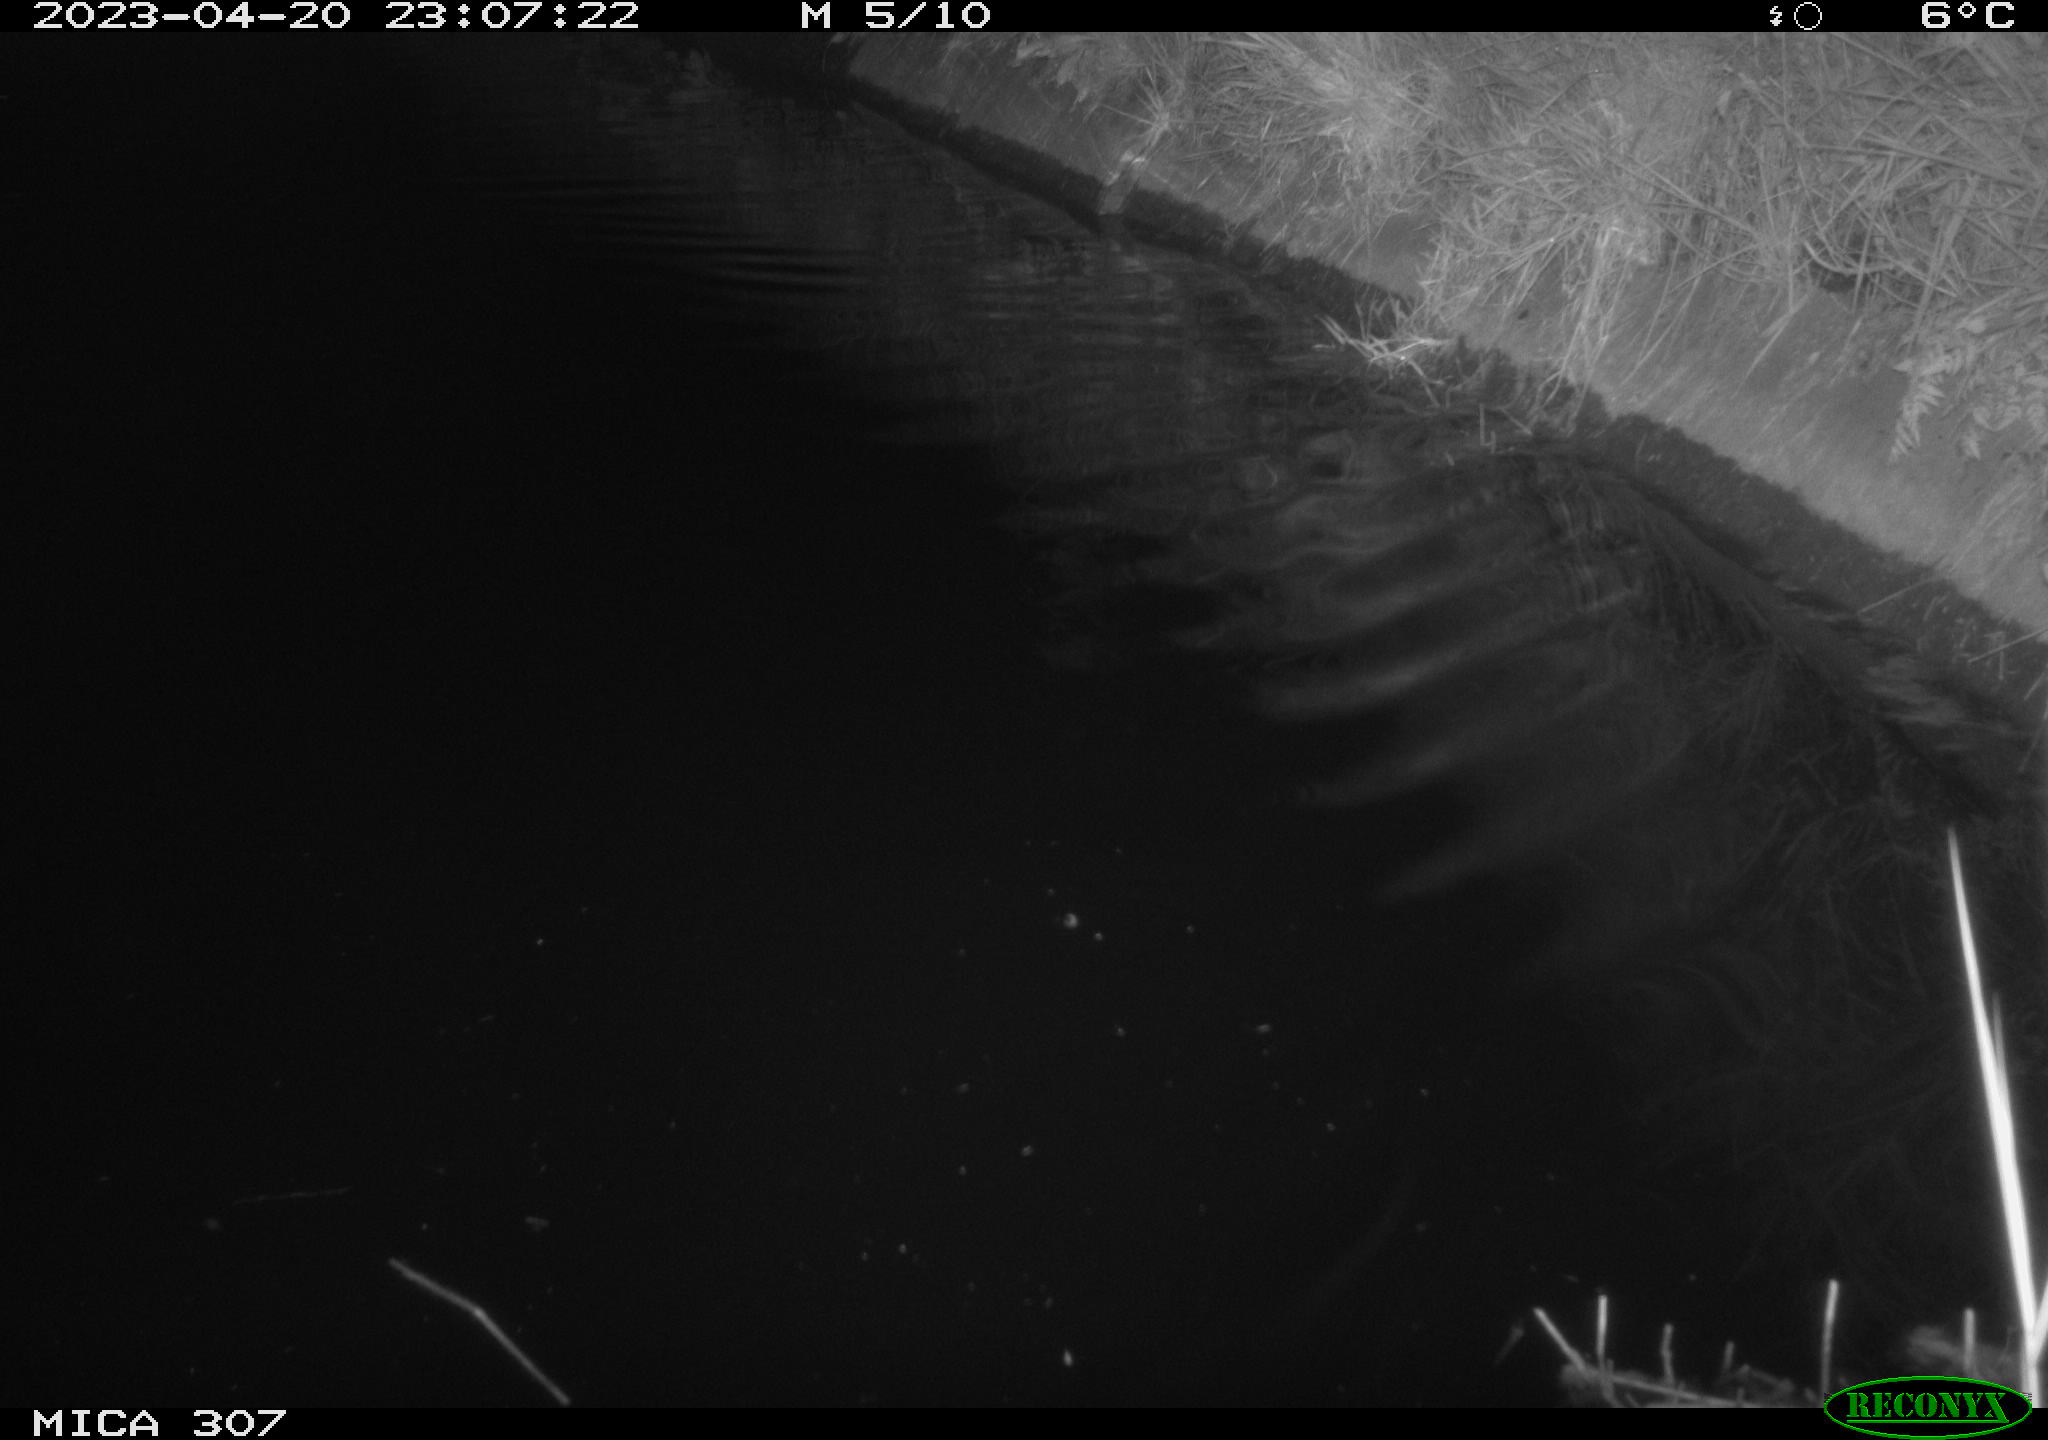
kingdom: Animalia
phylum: Chordata
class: Aves
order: Anseriformes
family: Anatidae
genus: Anas
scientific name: Anas
